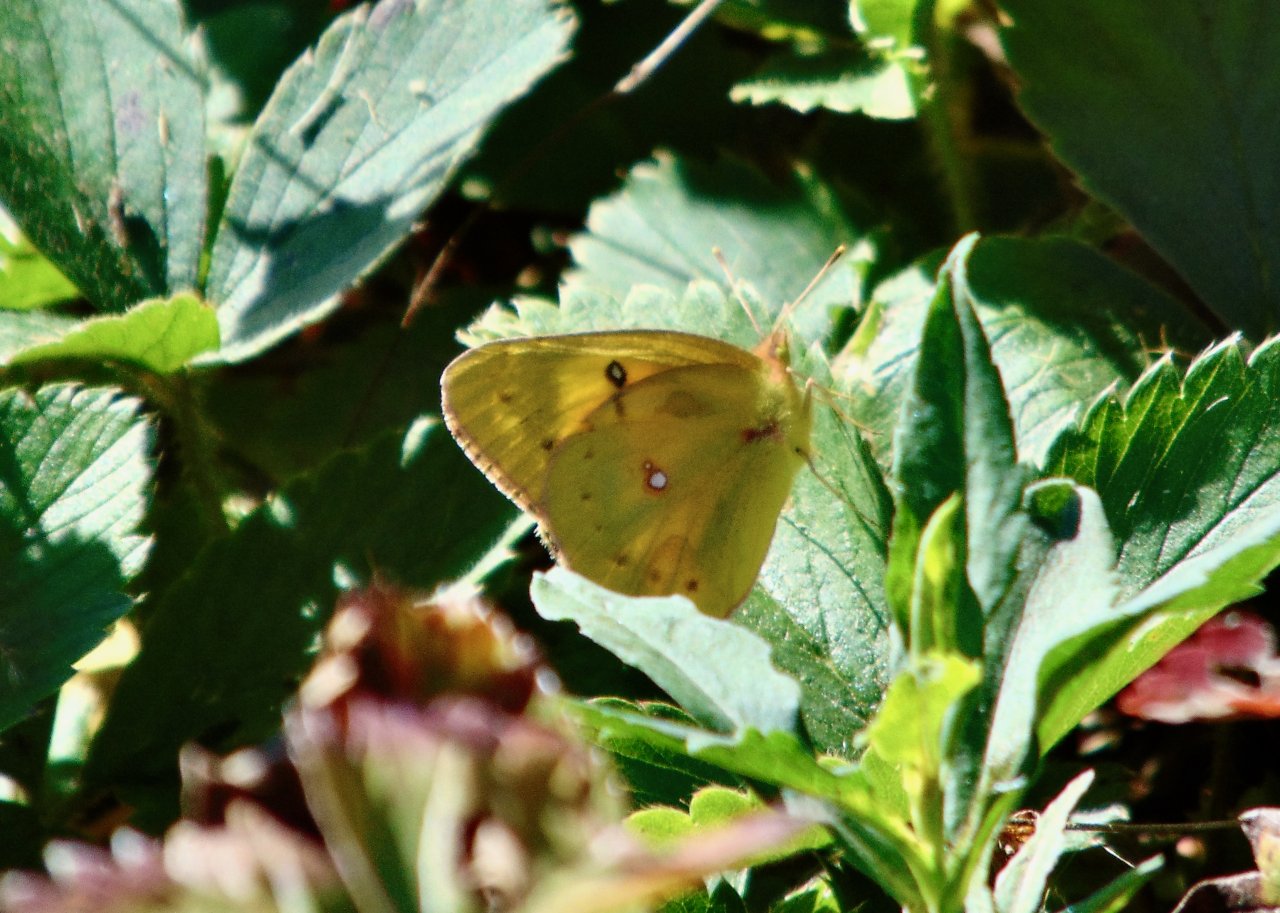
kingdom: Animalia
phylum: Arthropoda
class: Insecta
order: Lepidoptera
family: Pieridae
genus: Colias
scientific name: Colias eurytheme
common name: Orange Sulphur
